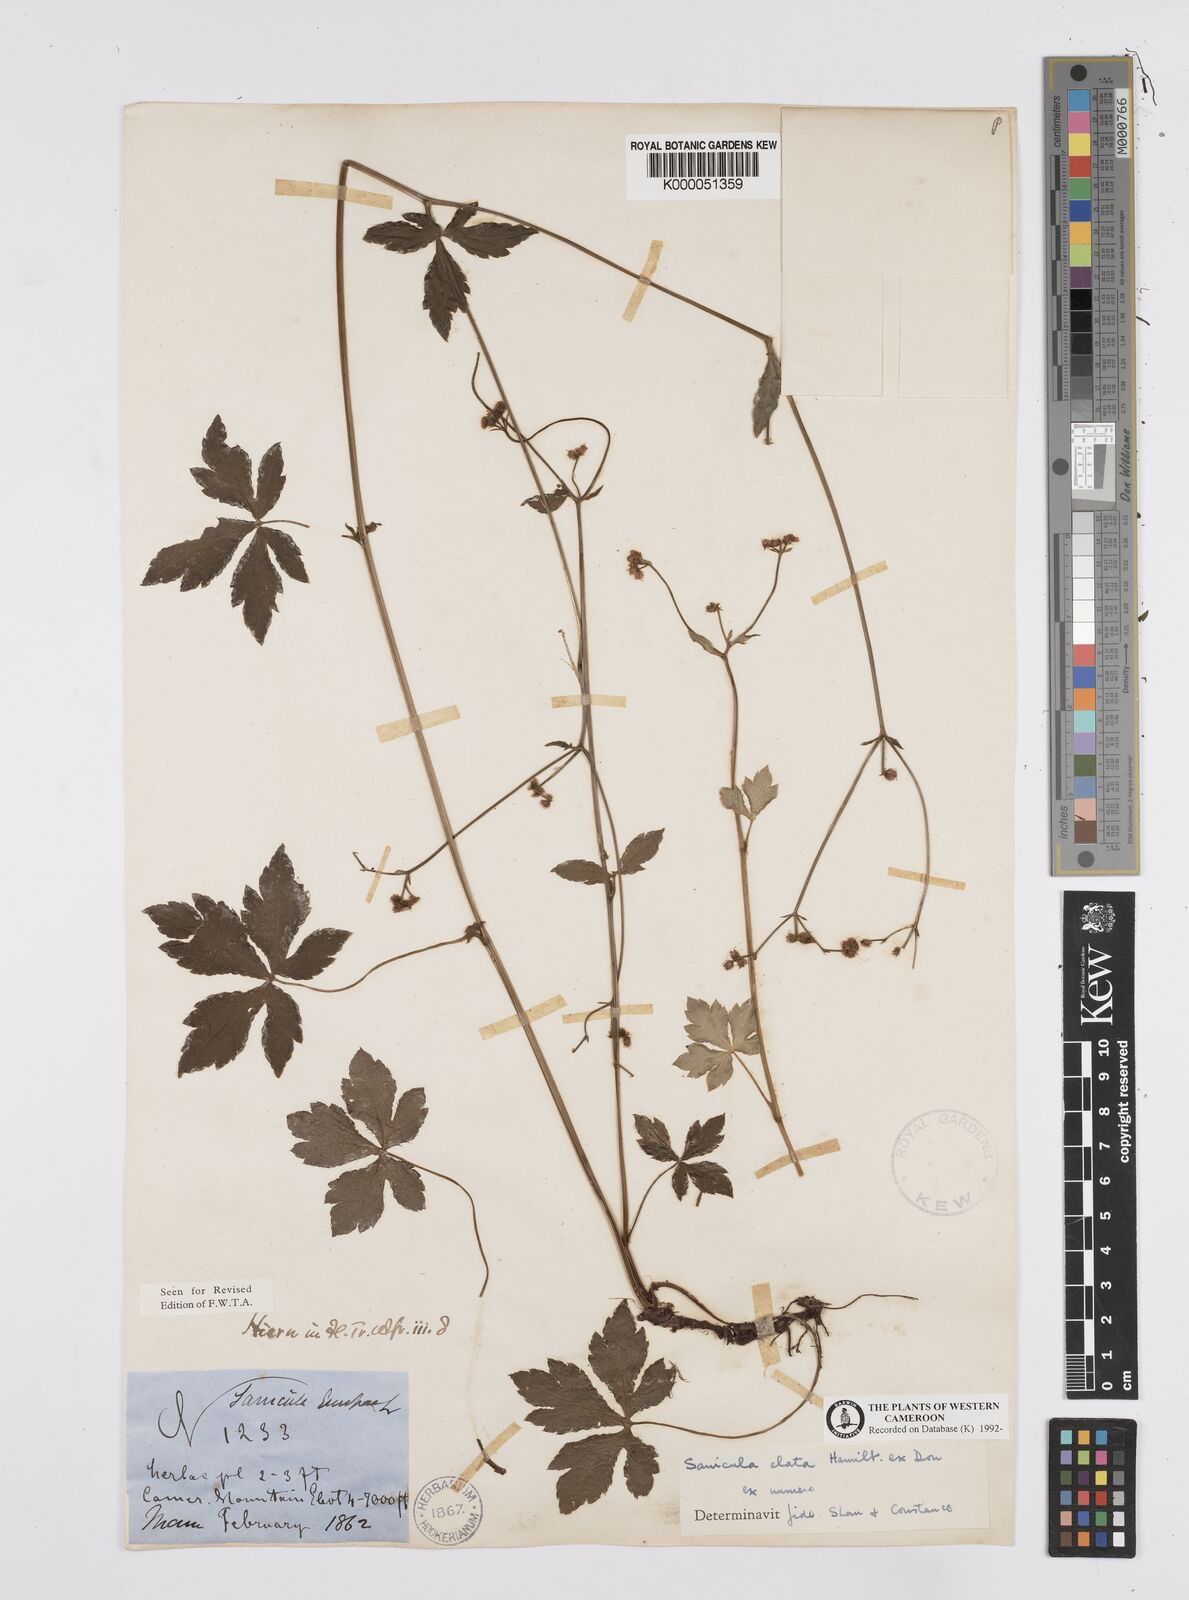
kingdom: Plantae
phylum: Tracheophyta
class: Magnoliopsida
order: Apiales
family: Apiaceae
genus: Sanicula
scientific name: Sanicula
